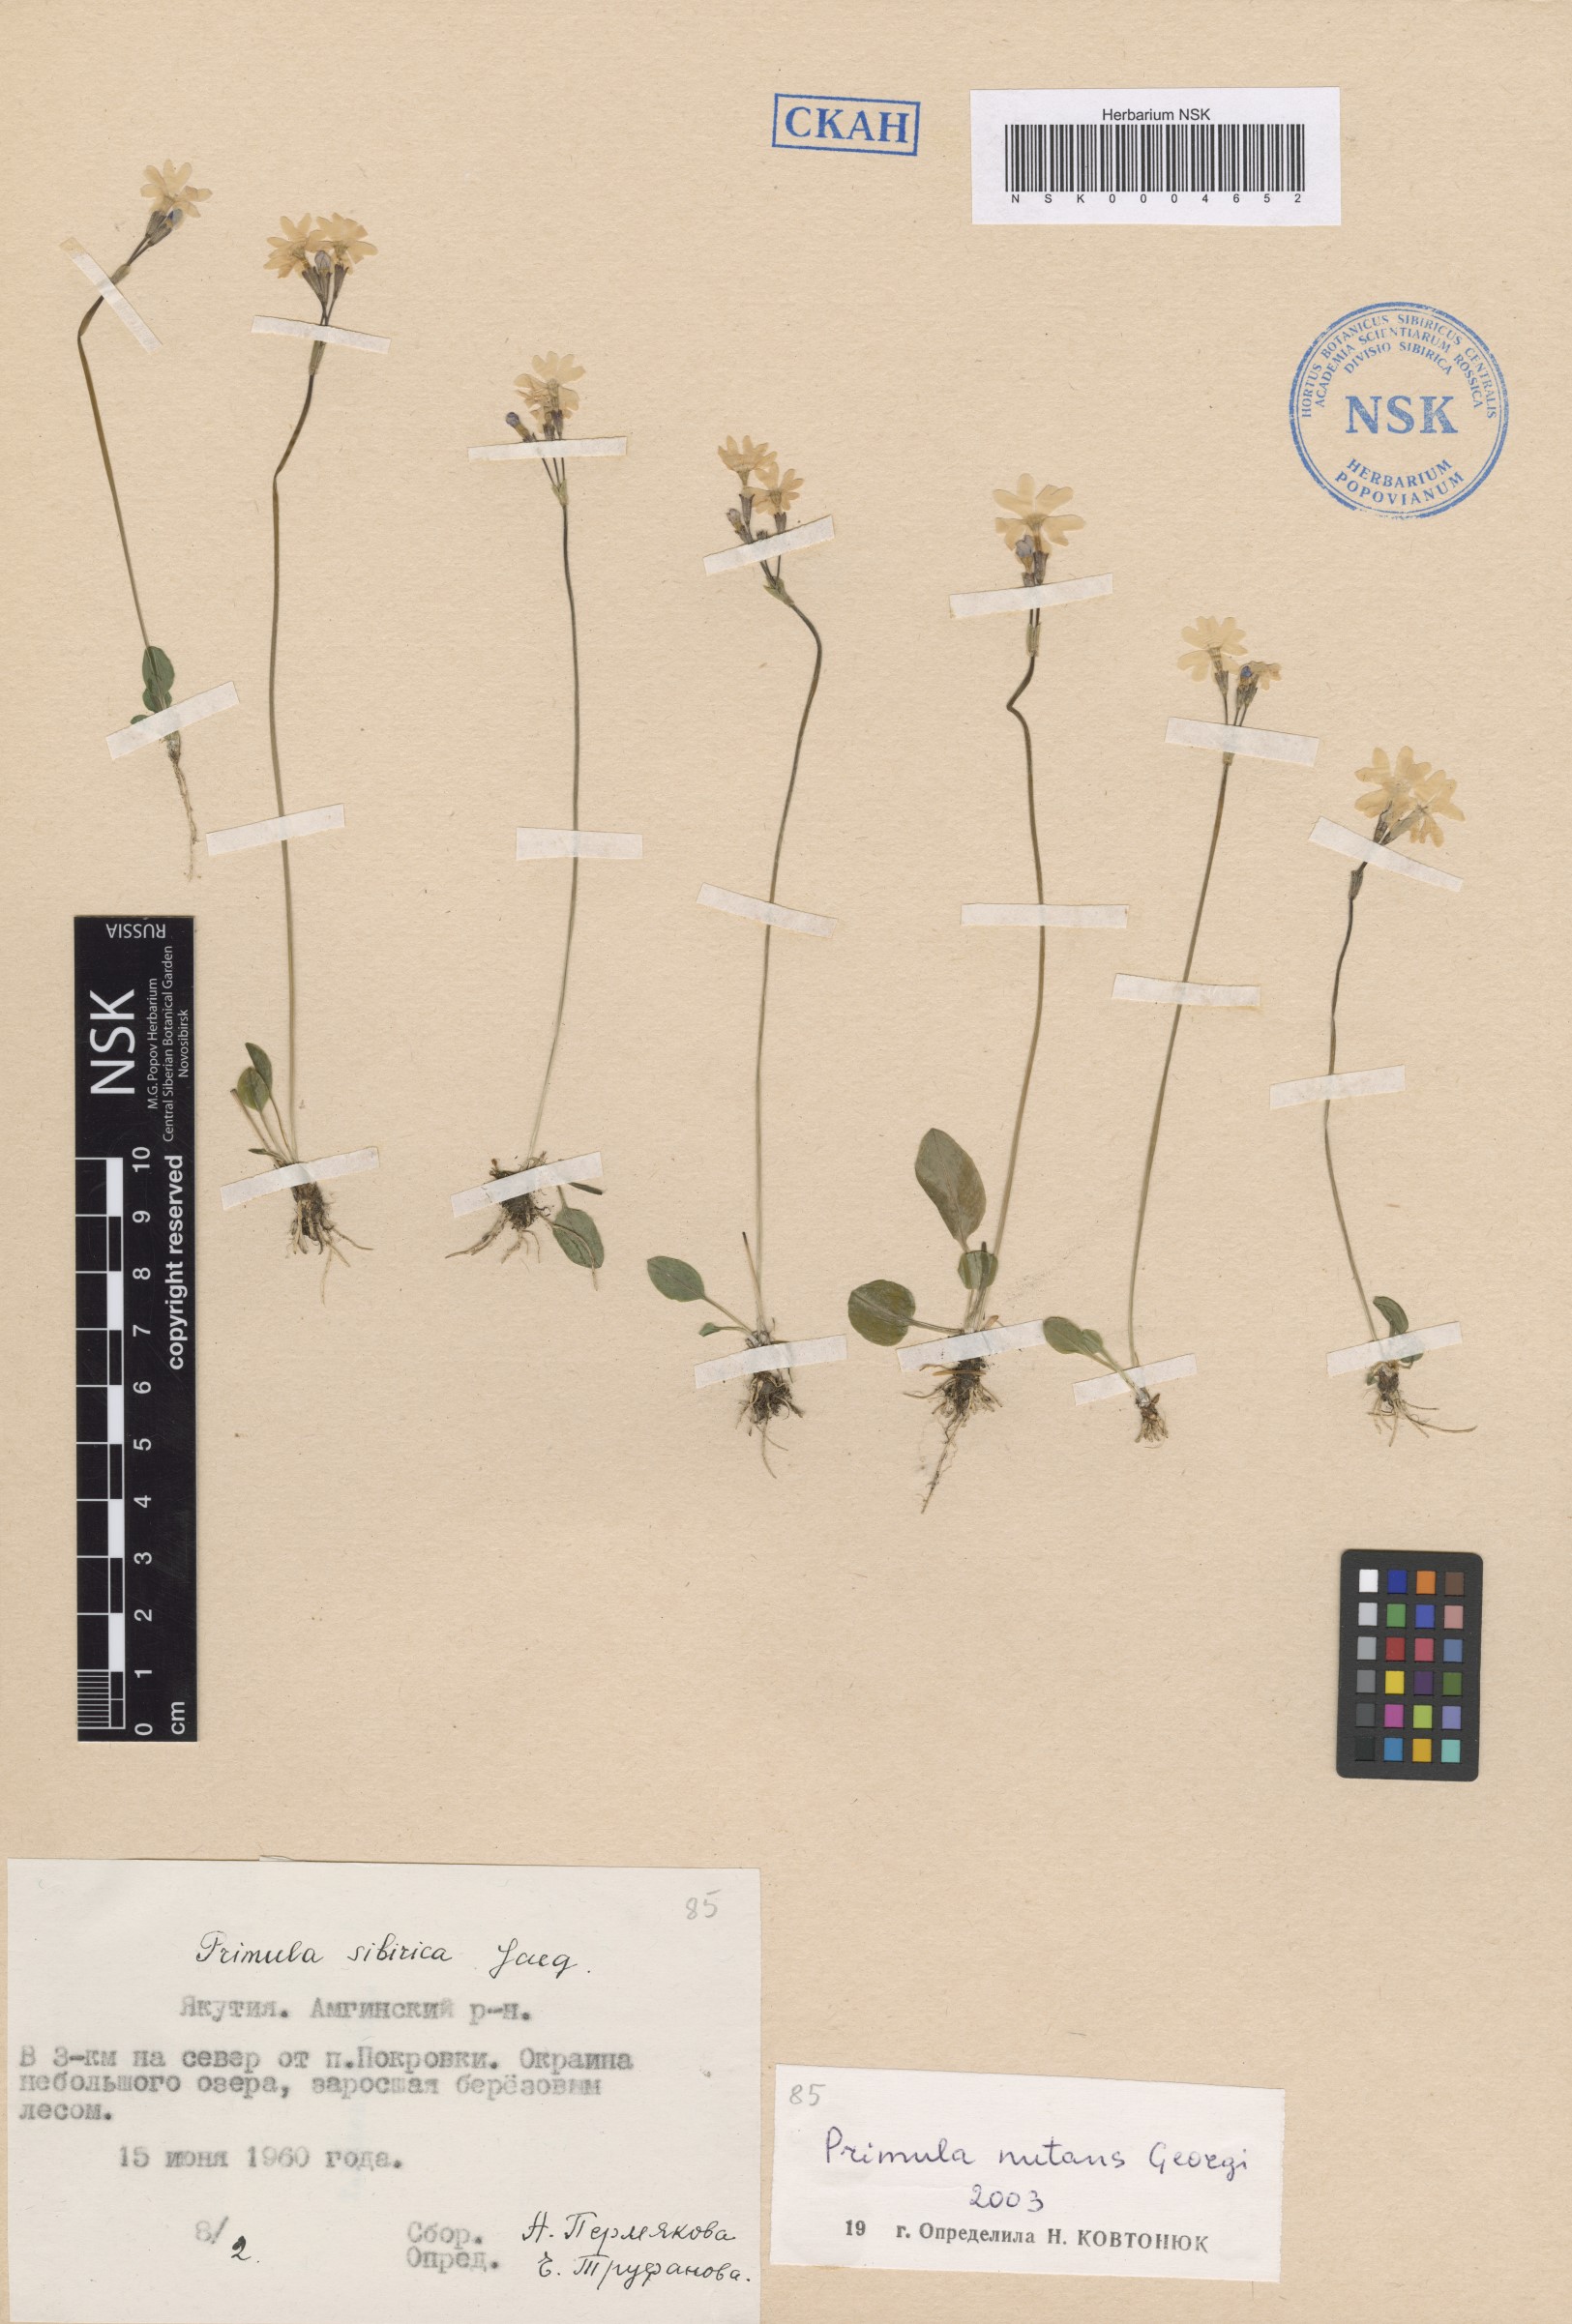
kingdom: Plantae
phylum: Tracheophyta
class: Magnoliopsida
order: Ericales
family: Primulaceae
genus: Primula
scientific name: Primula nutans
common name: Siberian primrose
